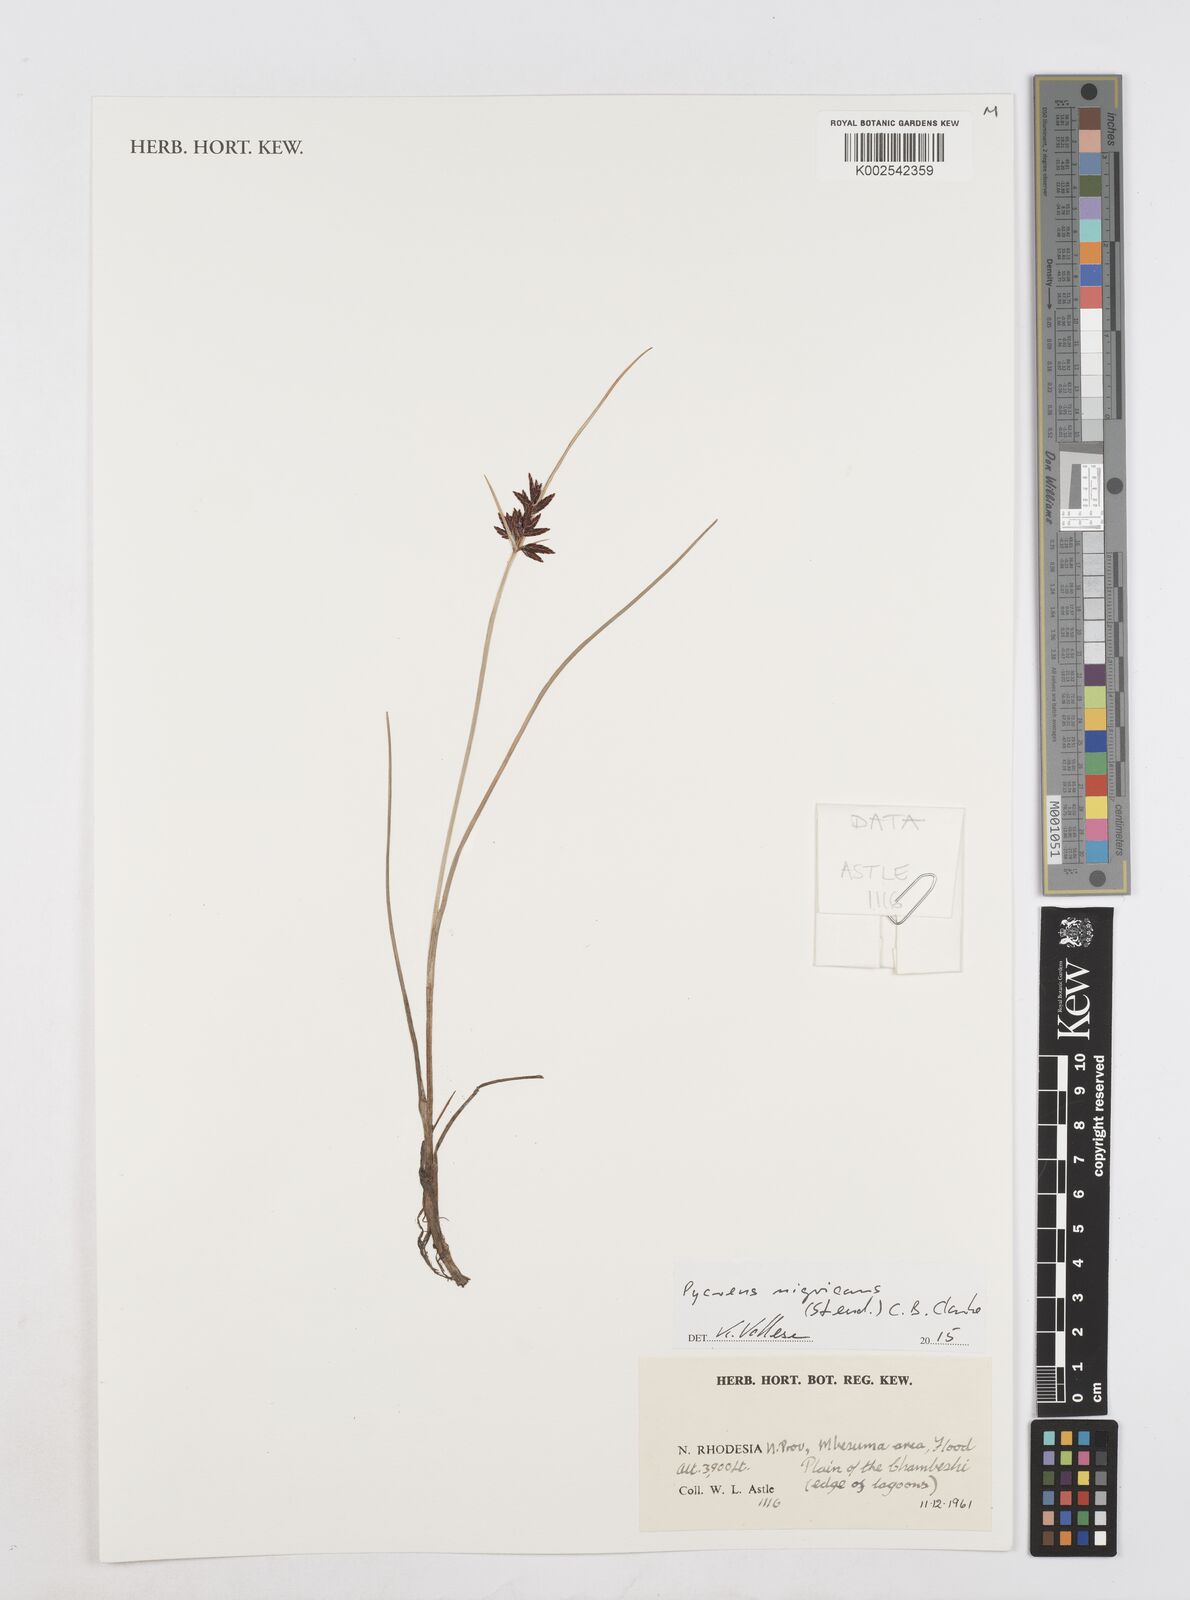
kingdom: Plantae
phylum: Tracheophyta
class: Liliopsida
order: Poales
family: Cyperaceae
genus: Cyperus
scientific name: Cyperus nigricans
